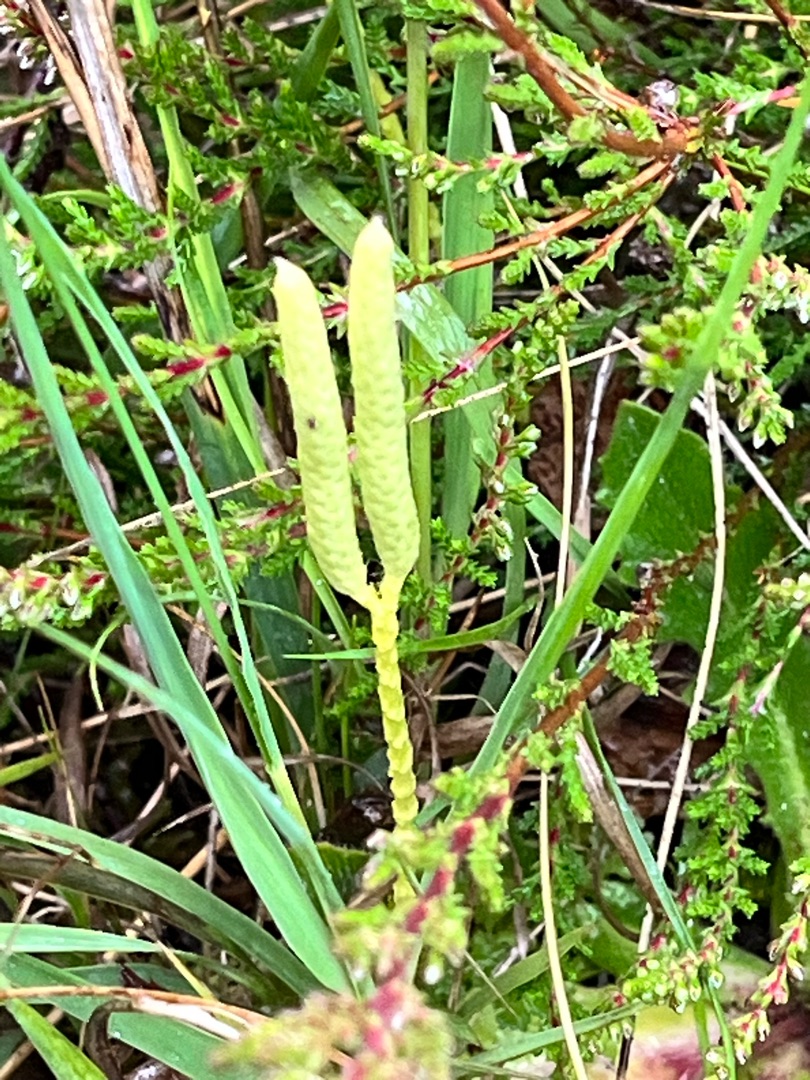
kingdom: Plantae
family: Pteridophyta
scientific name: Pteridophyta
